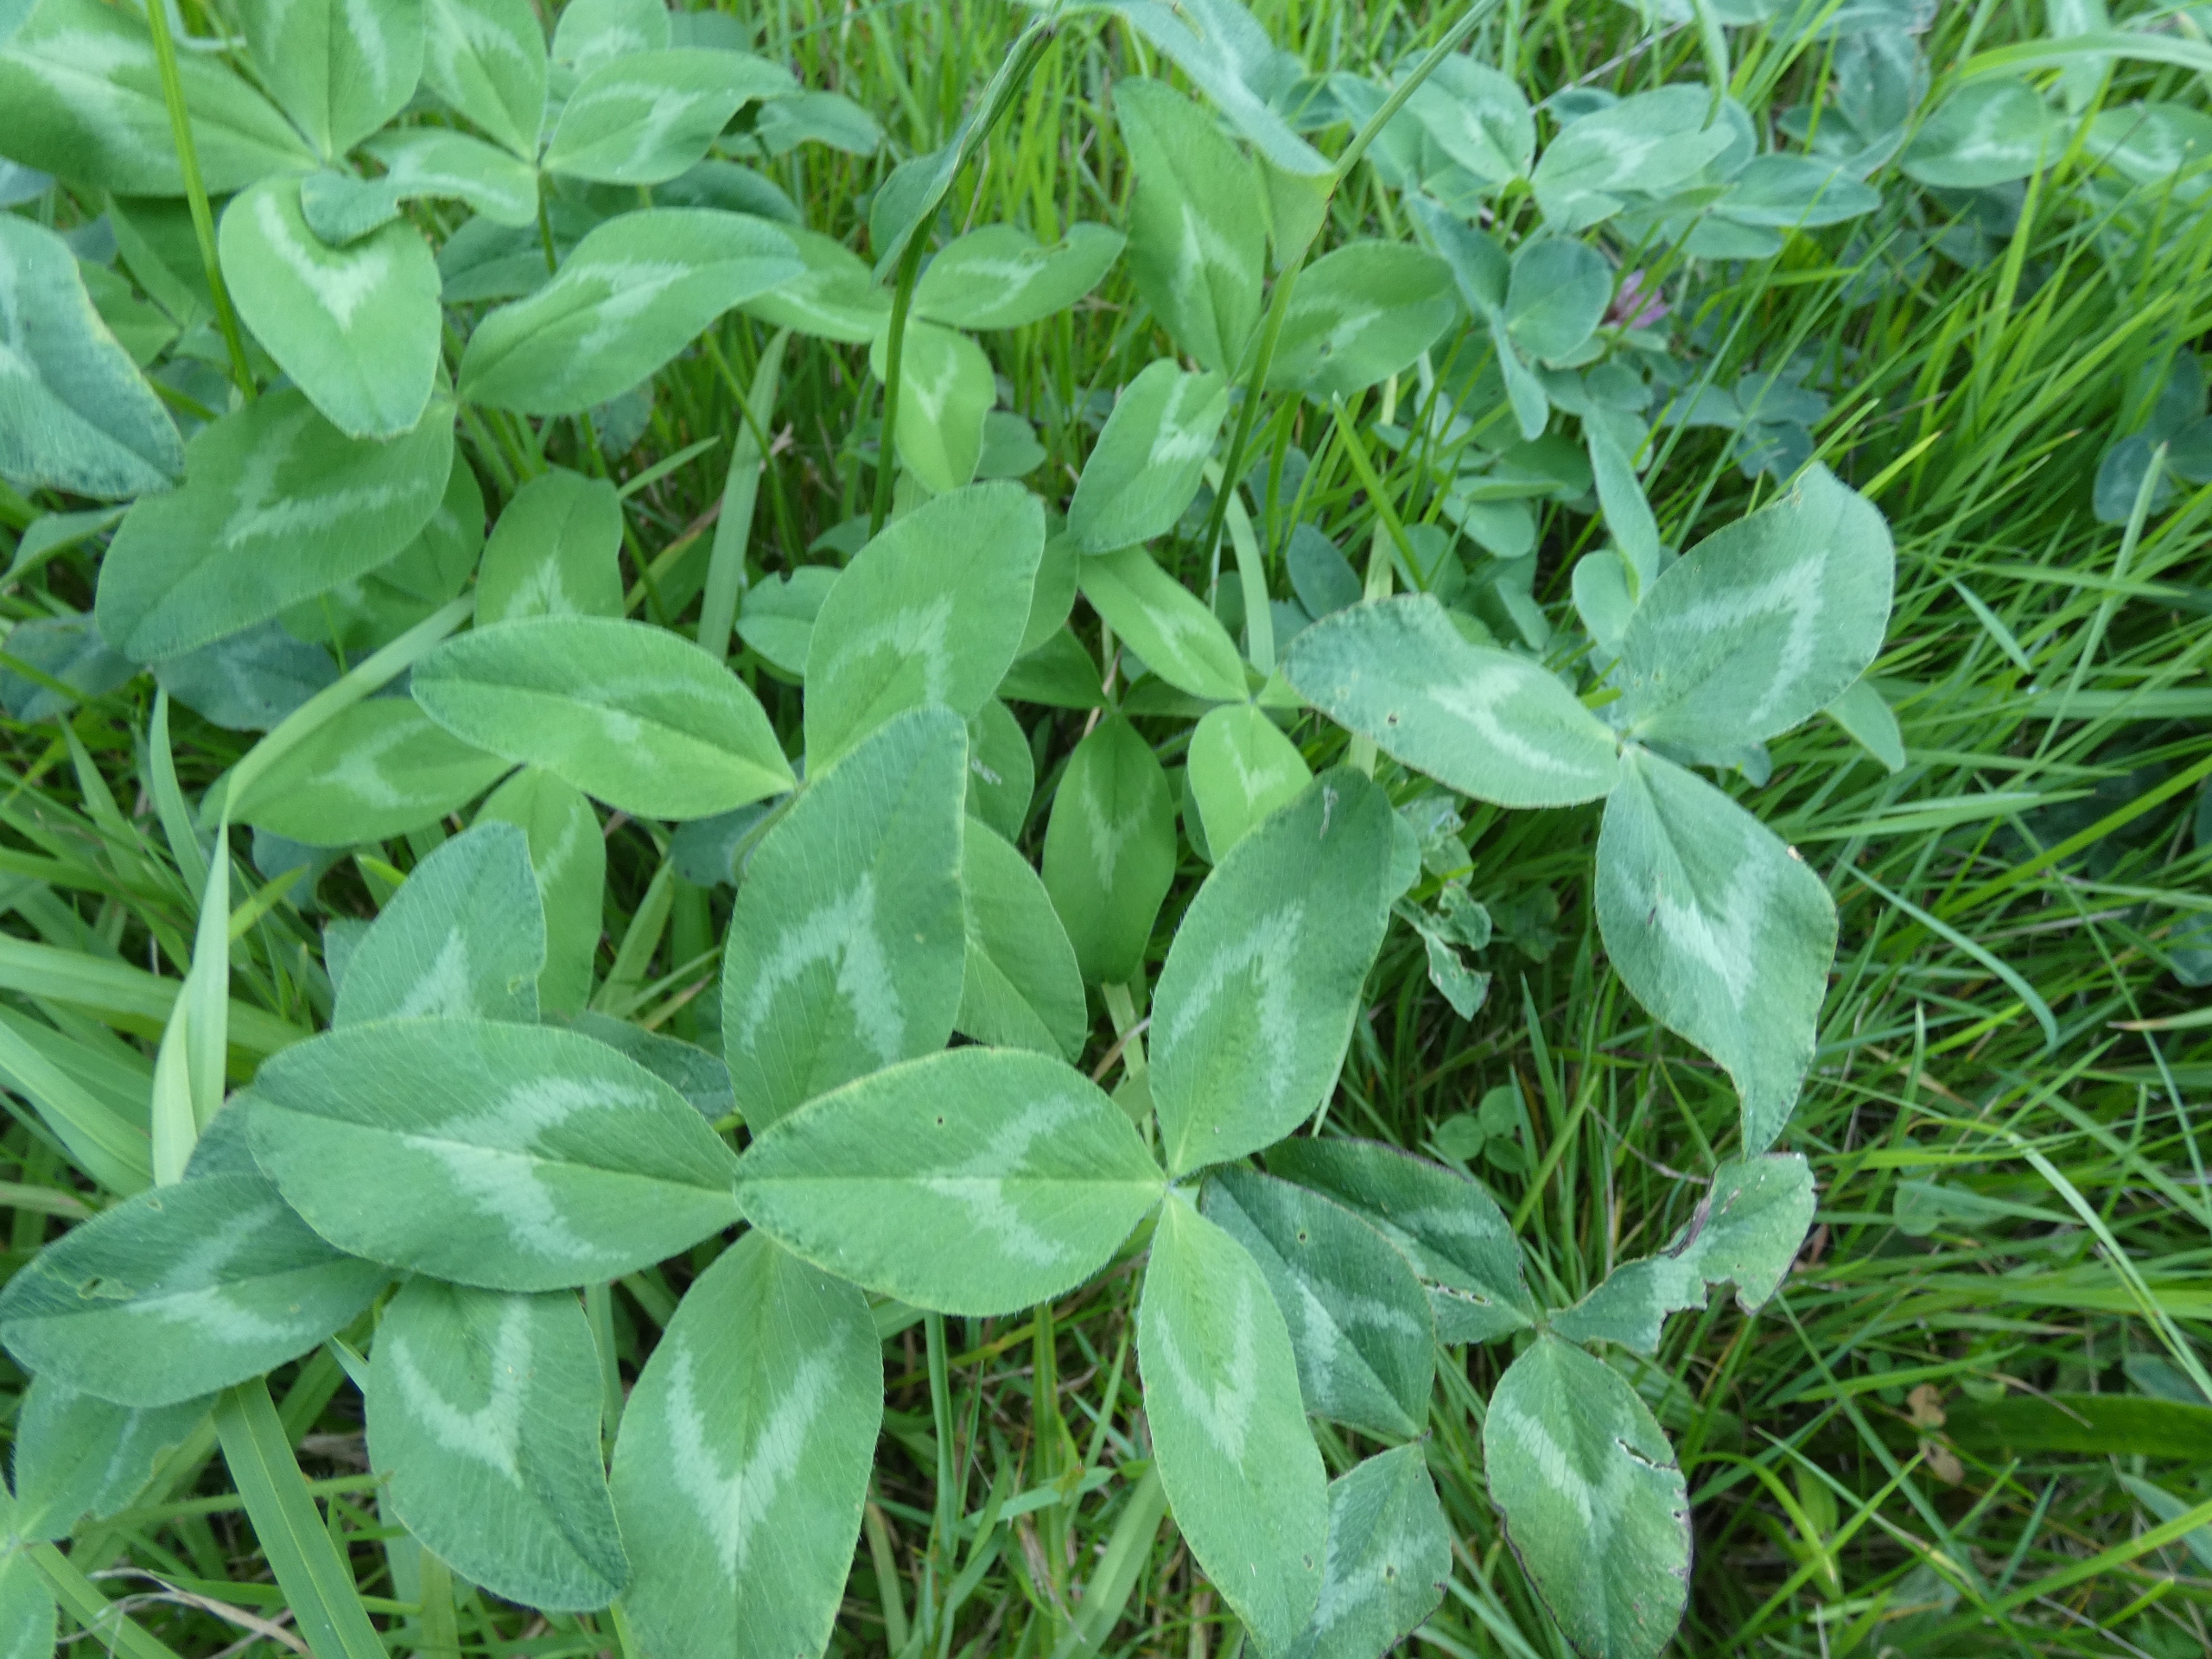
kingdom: Plantae
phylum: Tracheophyta
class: Magnoliopsida
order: Fabales
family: Fabaceae
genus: Trifolium
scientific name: Trifolium pratense
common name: Rød-kløver
